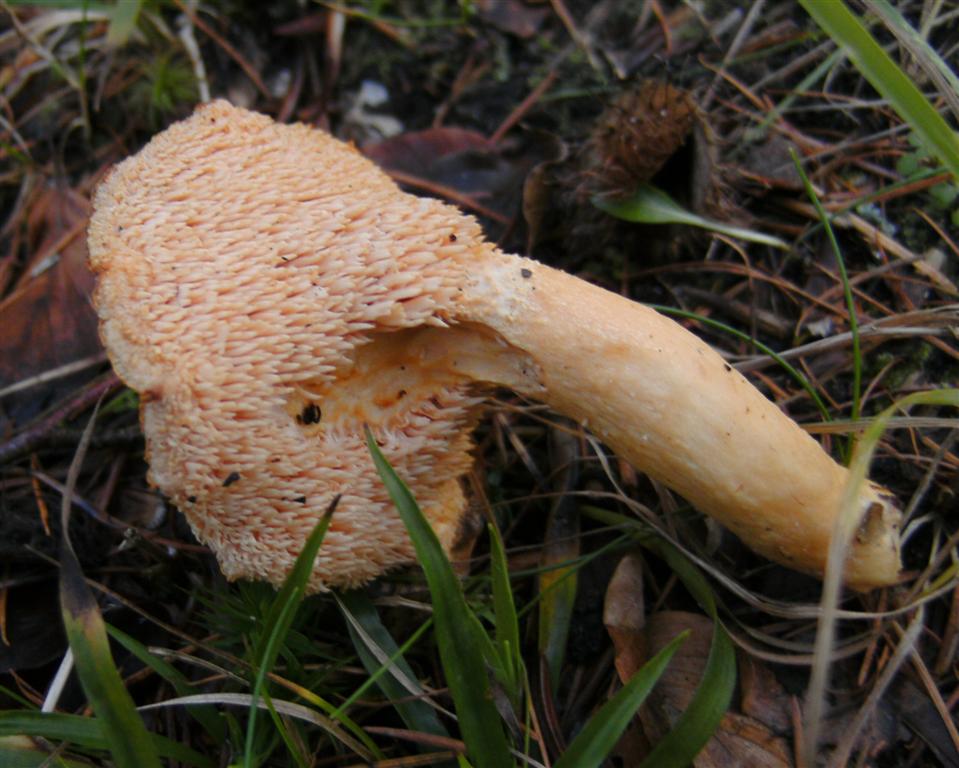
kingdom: Fungi
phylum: Basidiomycota
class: Agaricomycetes
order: Cantharellales
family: Hydnaceae
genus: Hydnum
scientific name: Hydnum umbilicatum
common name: navle-pigsvamp
